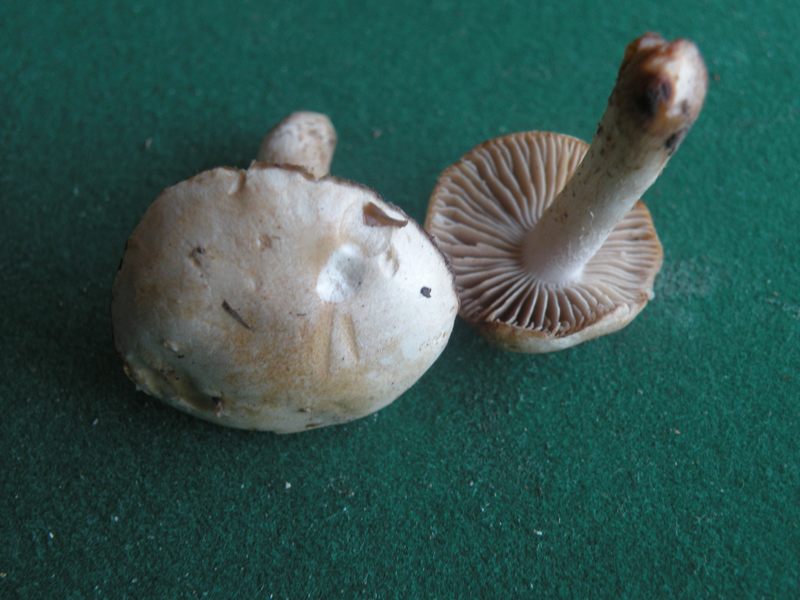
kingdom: Fungi
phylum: Basidiomycota
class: Agaricomycetes
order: Agaricales
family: Hymenogastraceae
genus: Hebeloma
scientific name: Hebeloma sacchariolens
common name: sødtduftende tåreblad
